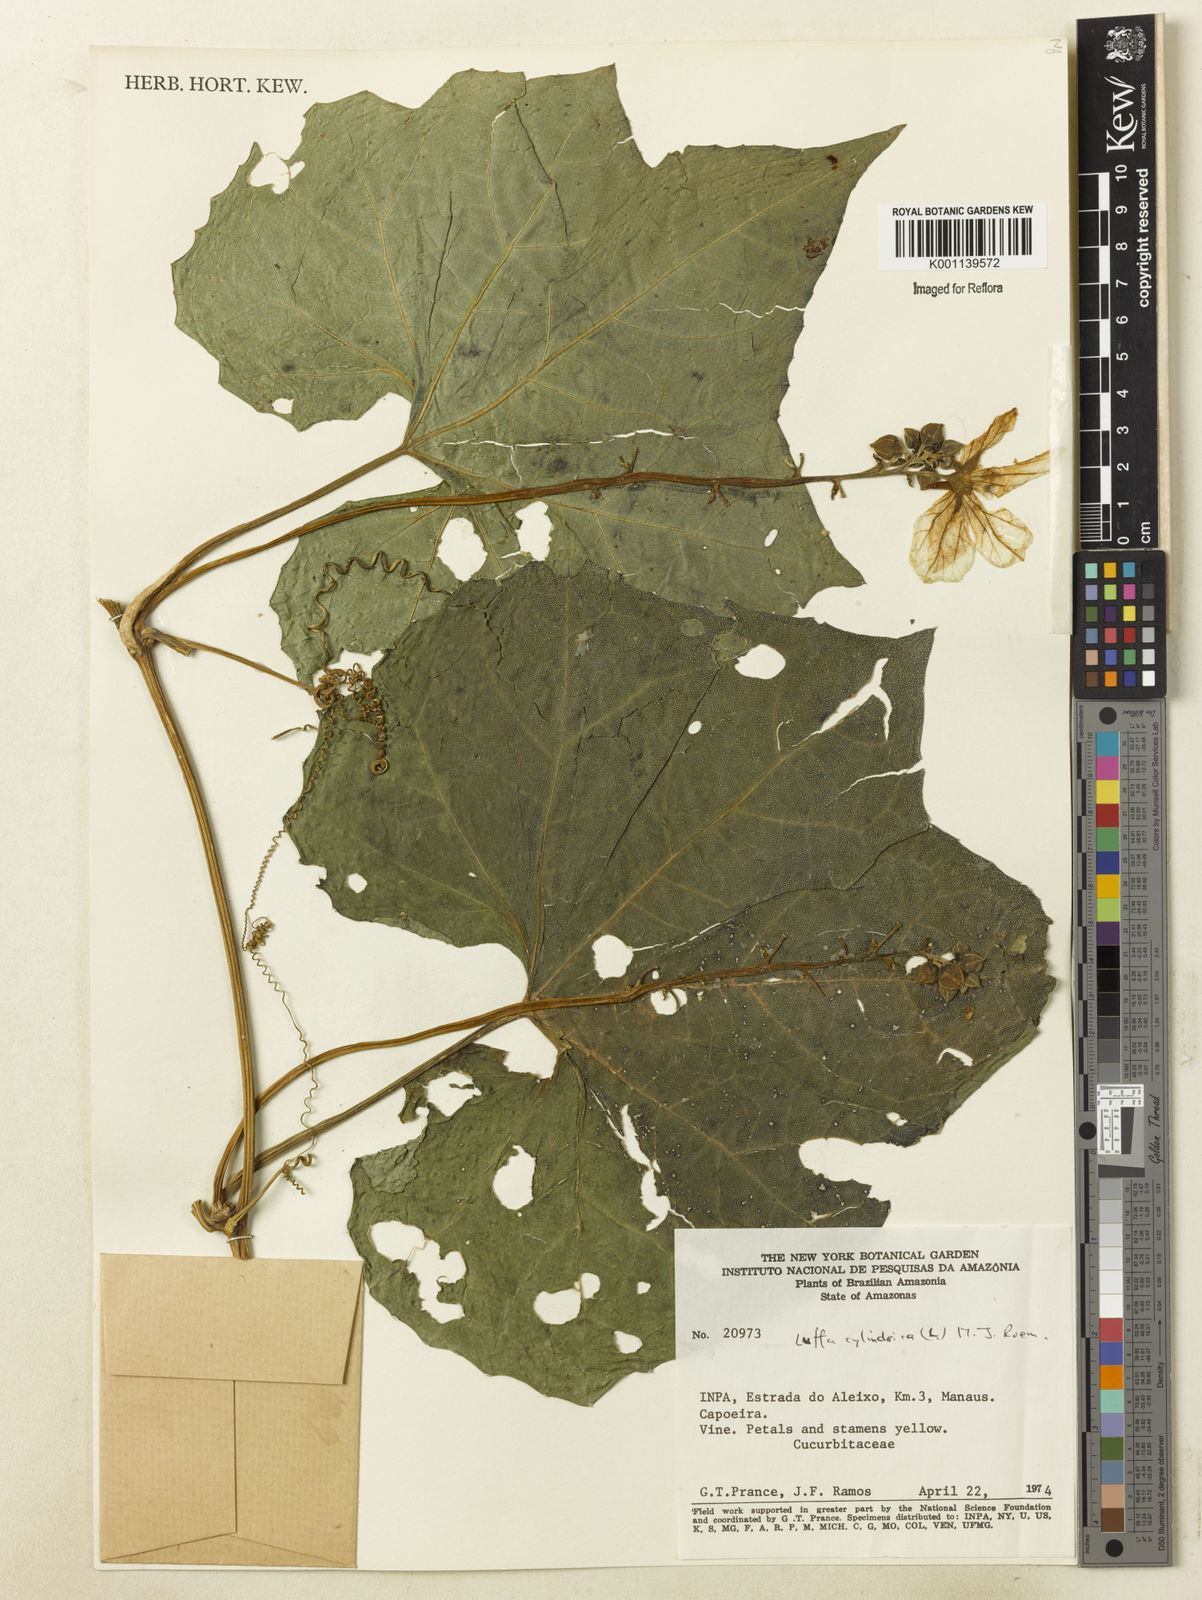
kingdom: Plantae
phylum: Tracheophyta
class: Magnoliopsida
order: Cucurbitales
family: Cucurbitaceae
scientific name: Cucurbitaceae
